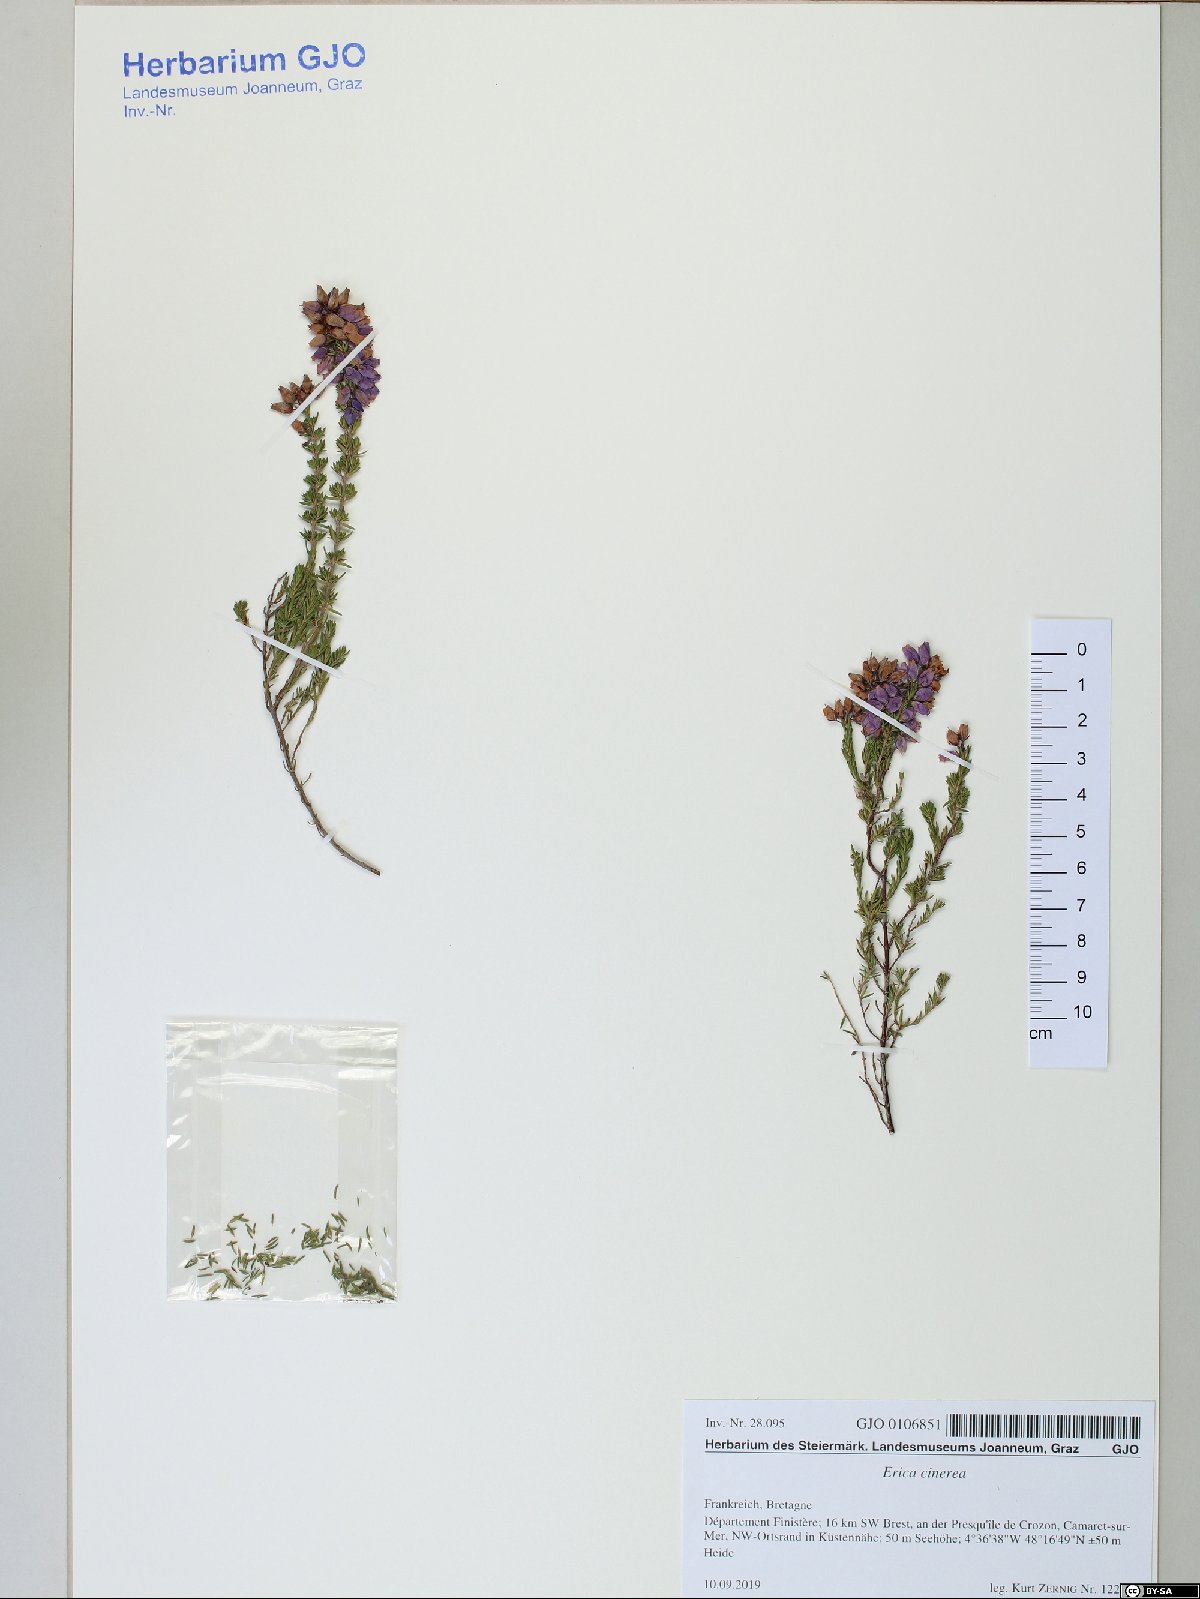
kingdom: Plantae
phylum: Tracheophyta
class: Magnoliopsida
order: Ericales
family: Ericaceae
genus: Erica
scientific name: Erica cinerea
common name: Bell heather
